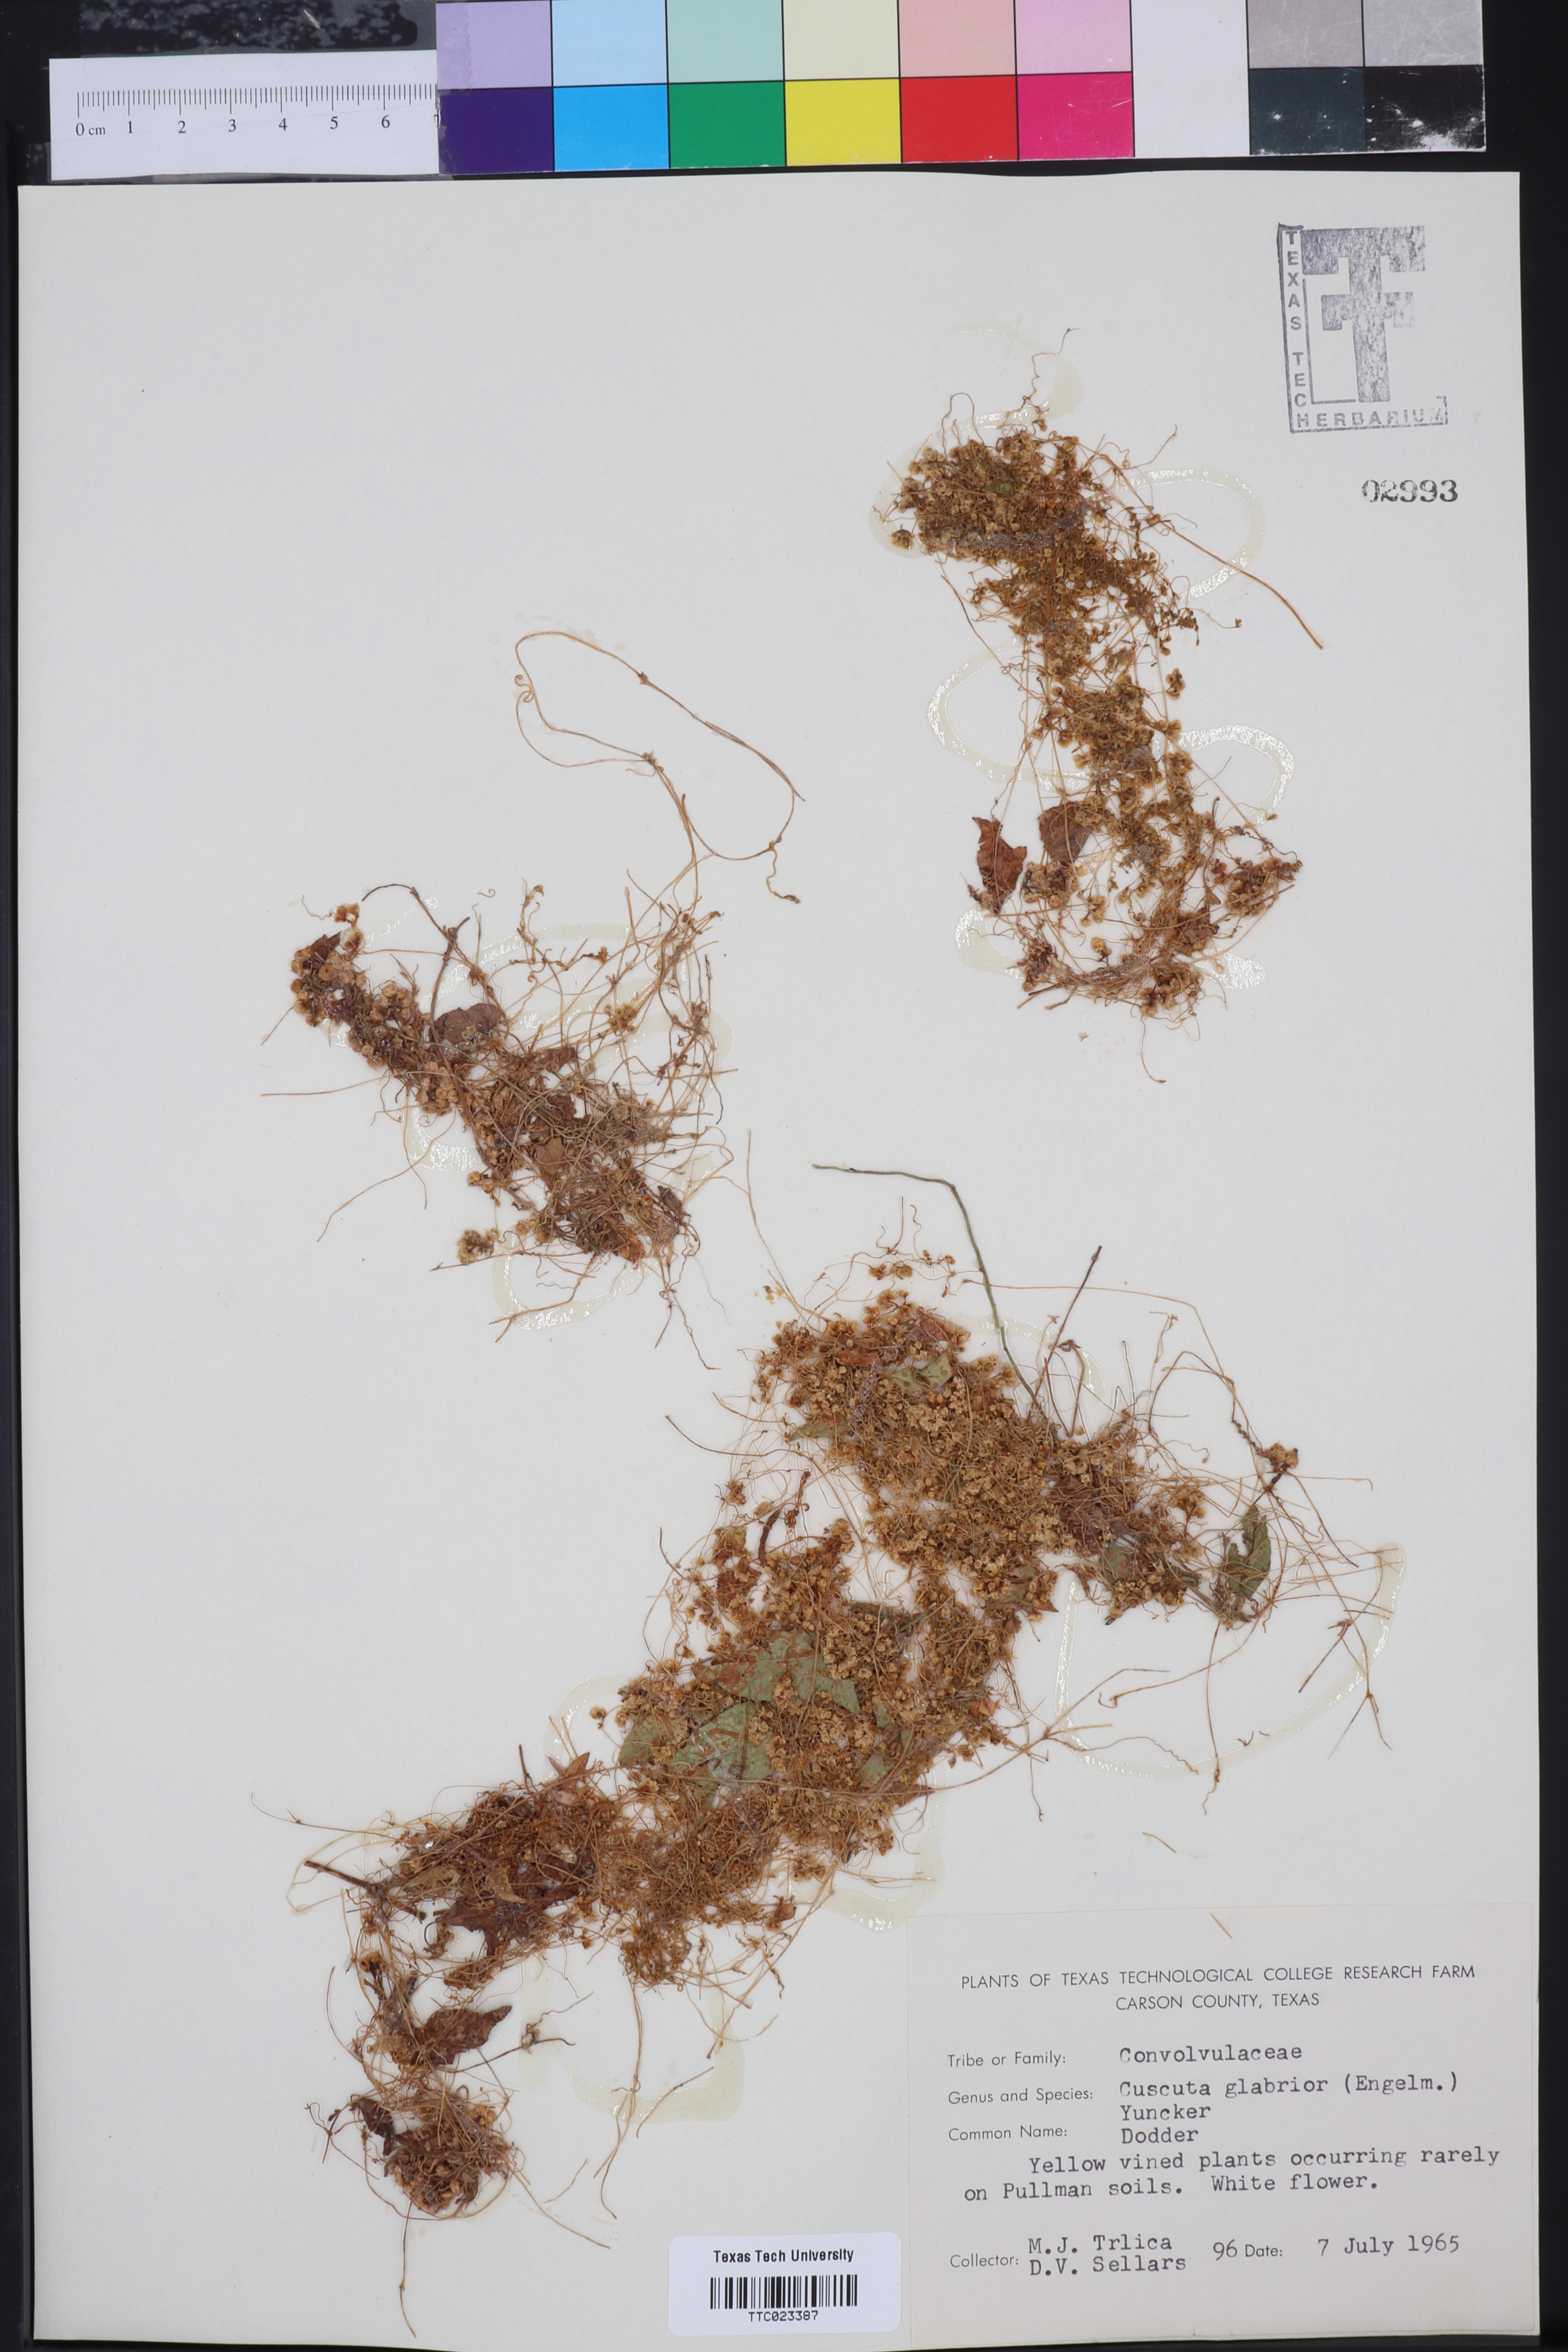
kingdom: Plantae
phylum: Tracheophyta
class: Magnoliopsida
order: Solanales
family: Convolvulaceae
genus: Cuscuta
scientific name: Cuscuta glabrior
